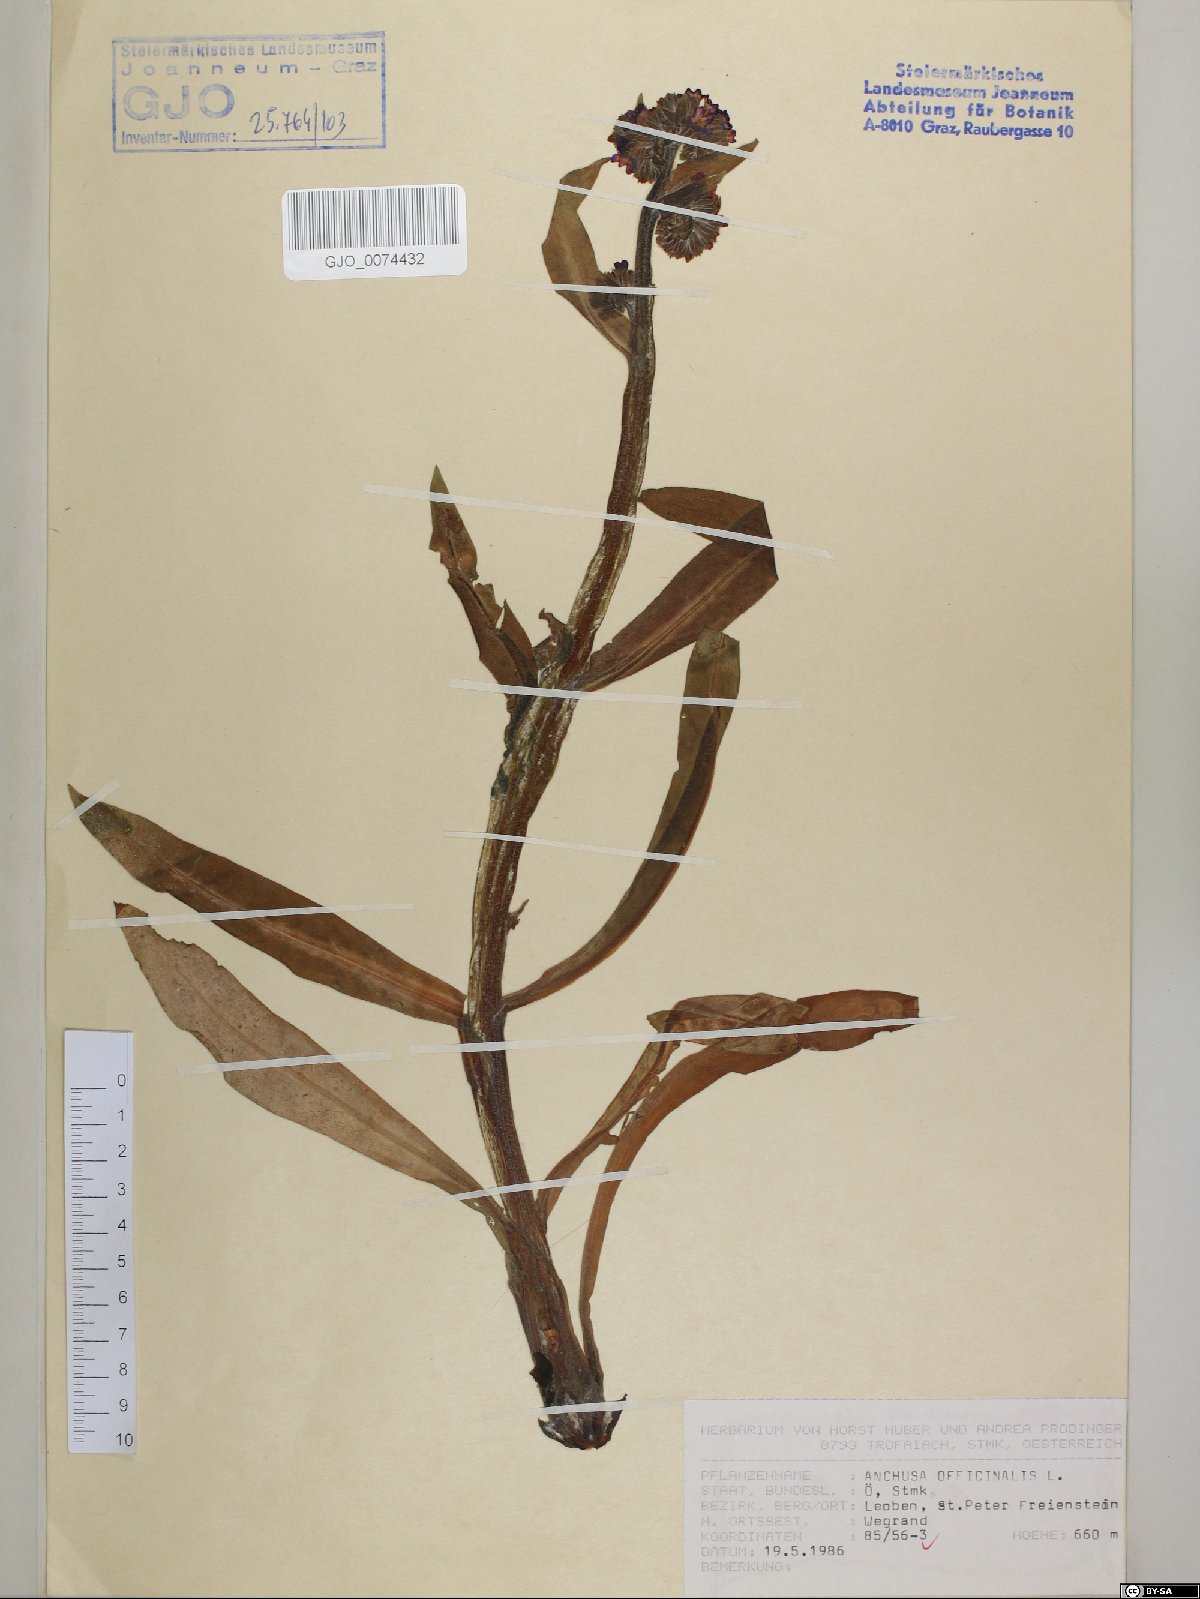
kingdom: Plantae
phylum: Tracheophyta
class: Magnoliopsida
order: Boraginales
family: Boraginaceae
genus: Anchusa
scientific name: Anchusa officinalis
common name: Alkanet
